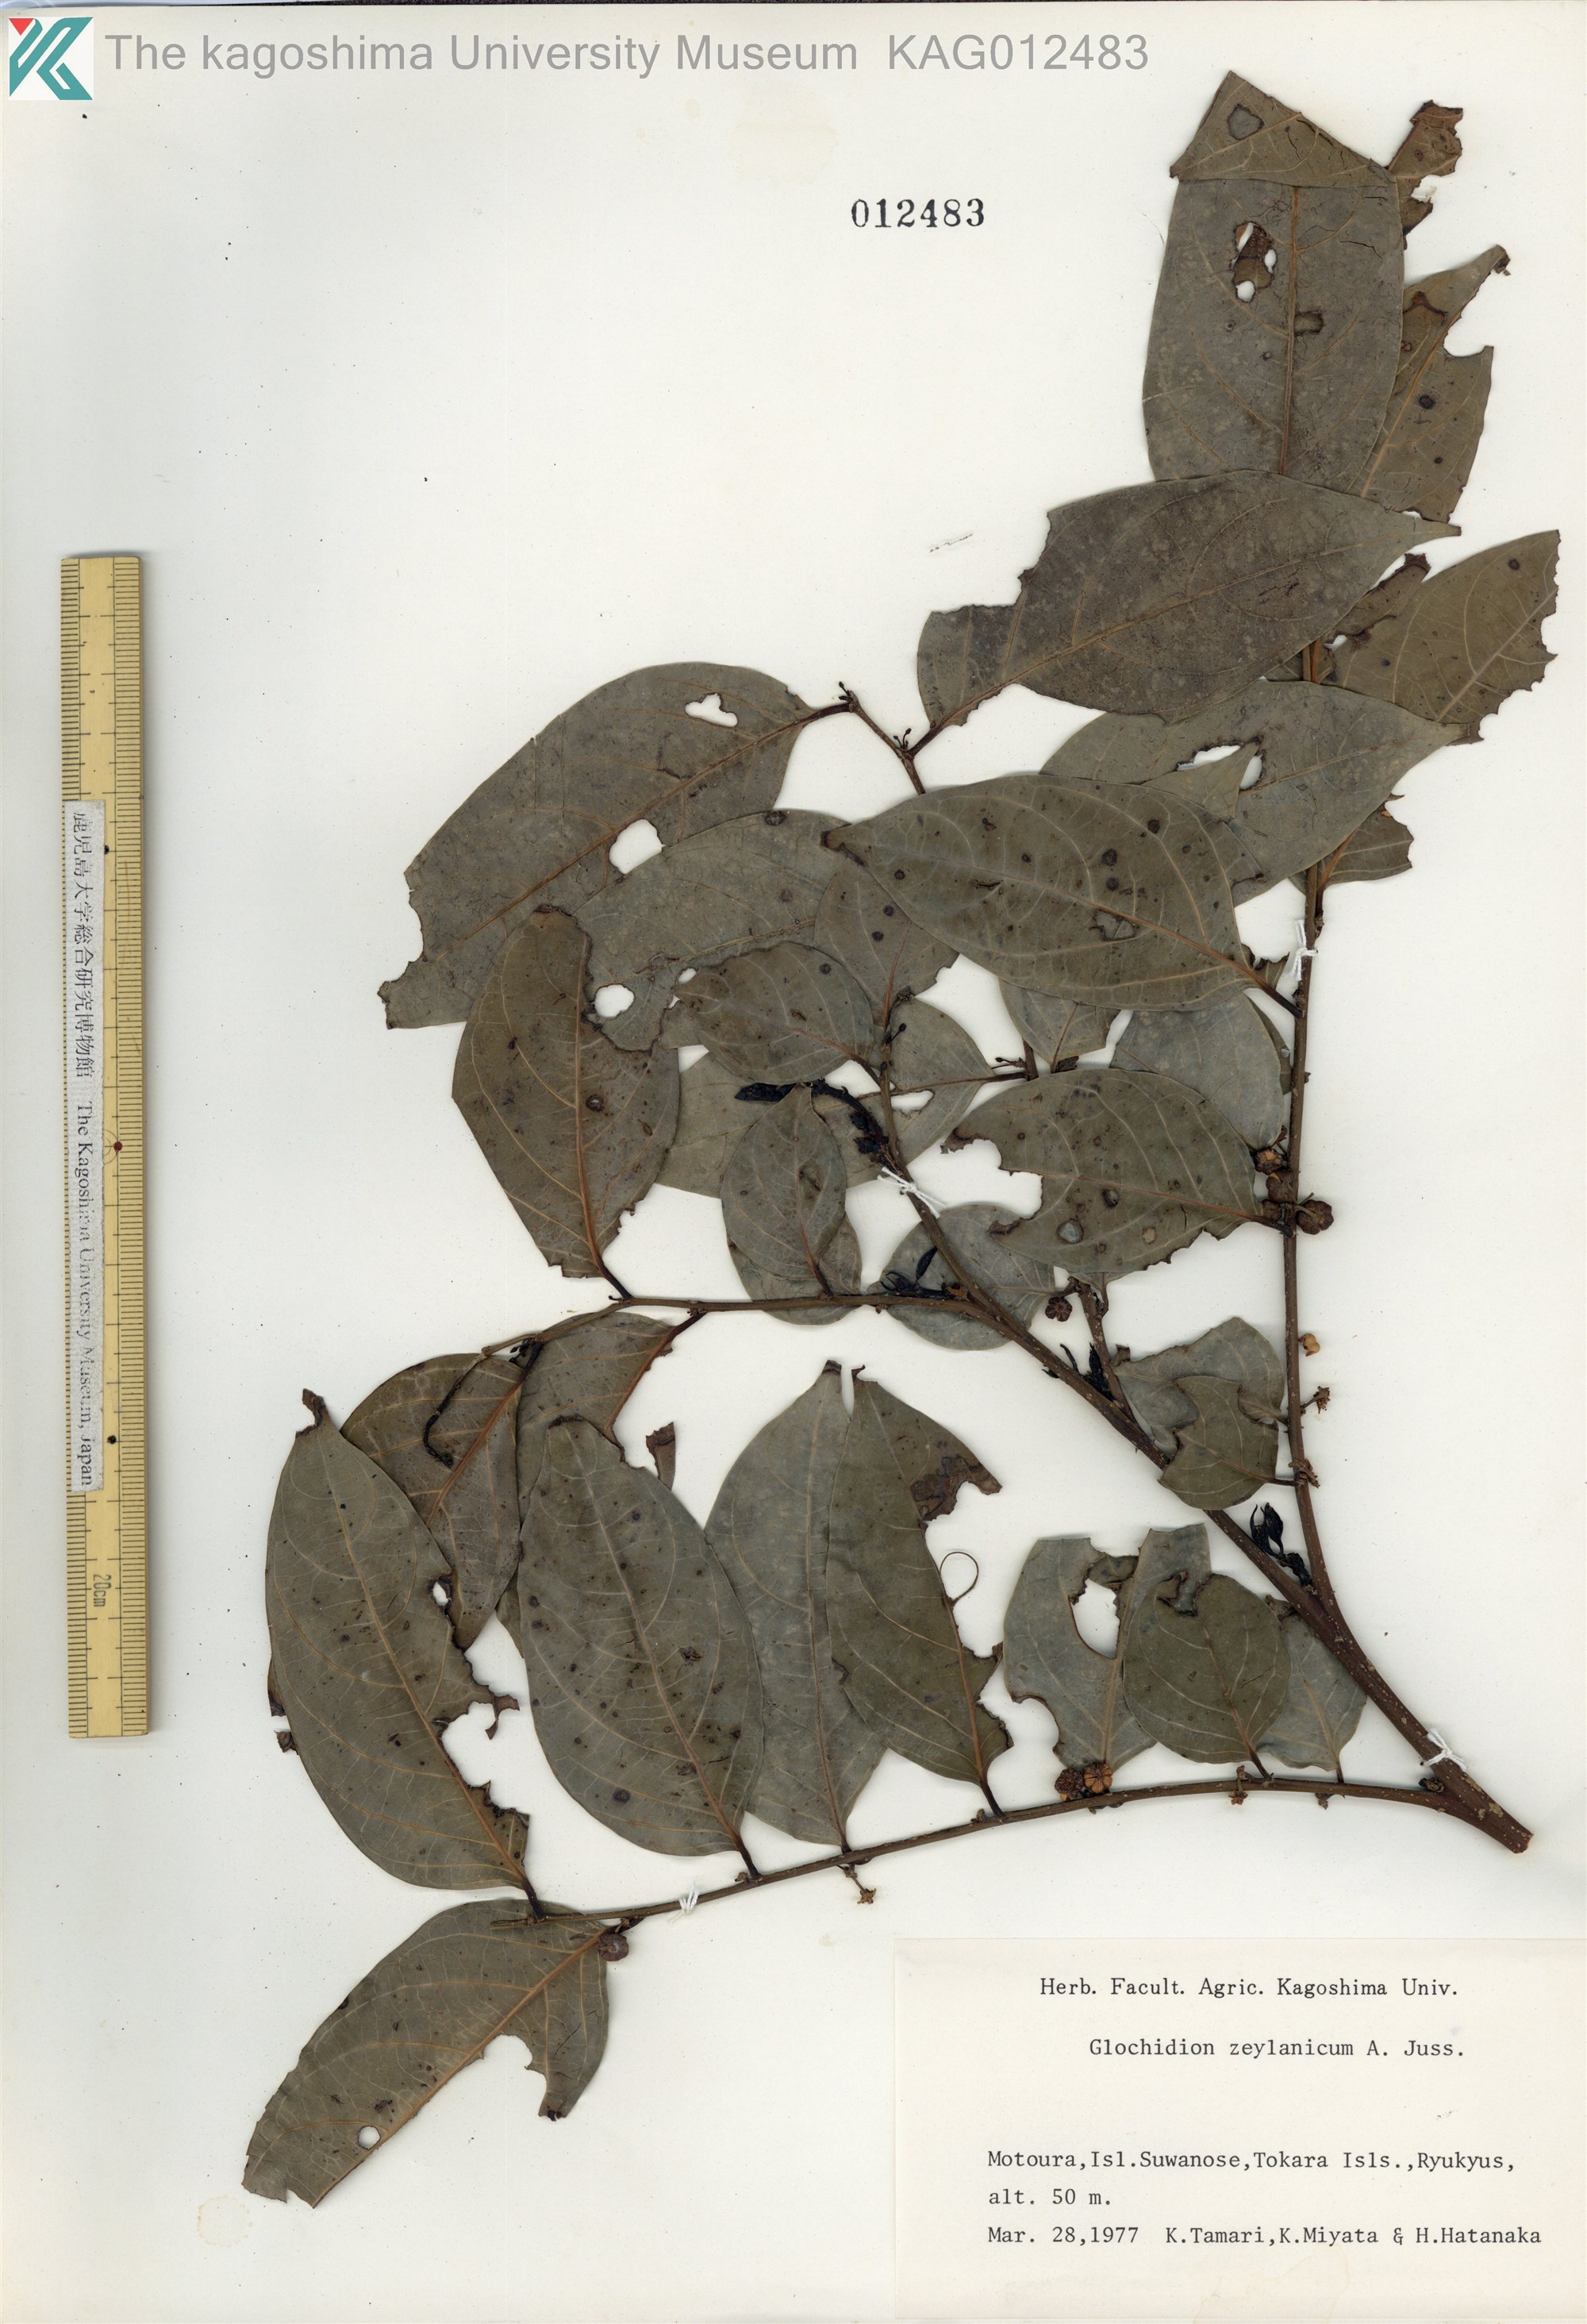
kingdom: Plantae
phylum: Tracheophyta
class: Magnoliopsida
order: Malpighiales
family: Phyllanthaceae
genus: Glochidion
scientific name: Glochidion zeylanicum
